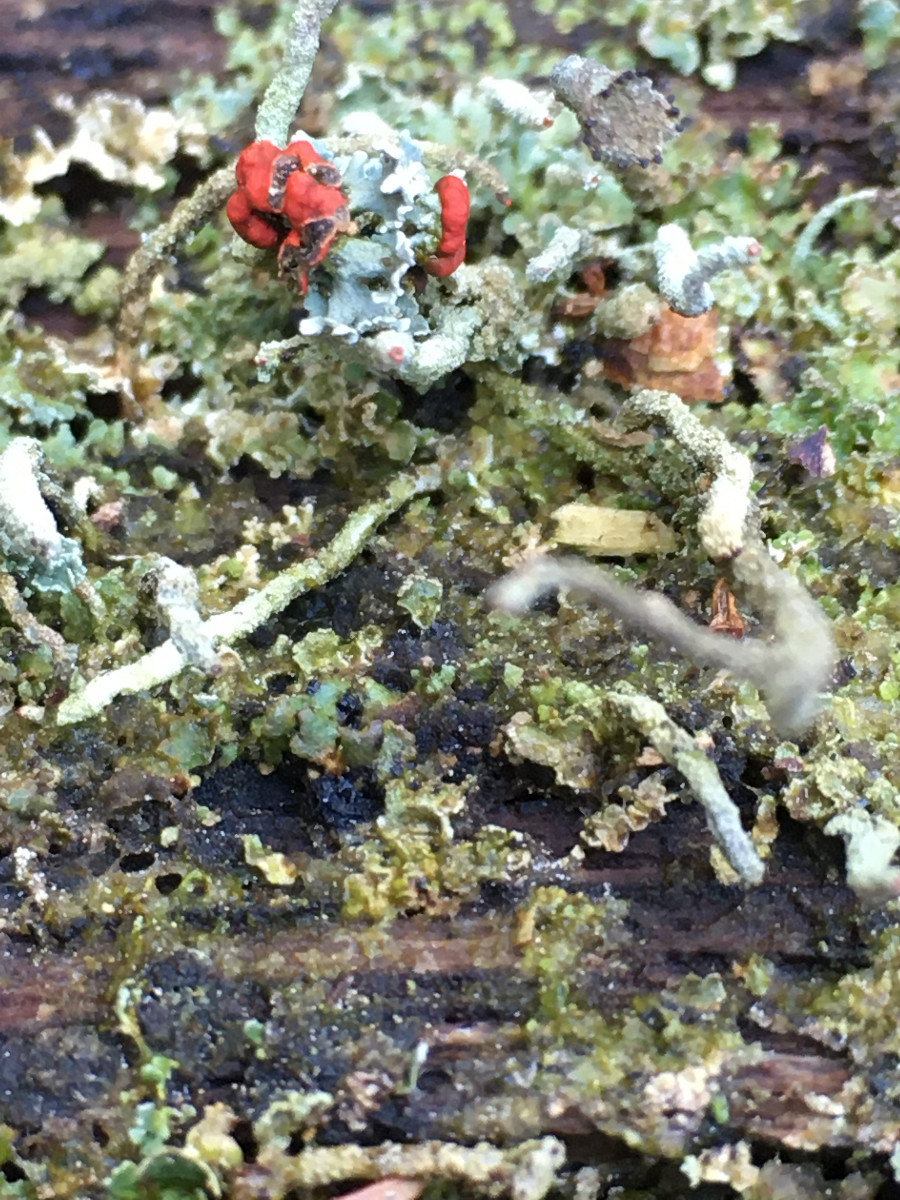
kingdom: Fungi
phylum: Ascomycota
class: Lecanoromycetes
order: Lecanorales
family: Cladoniaceae
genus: Cladonia
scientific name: Cladonia
